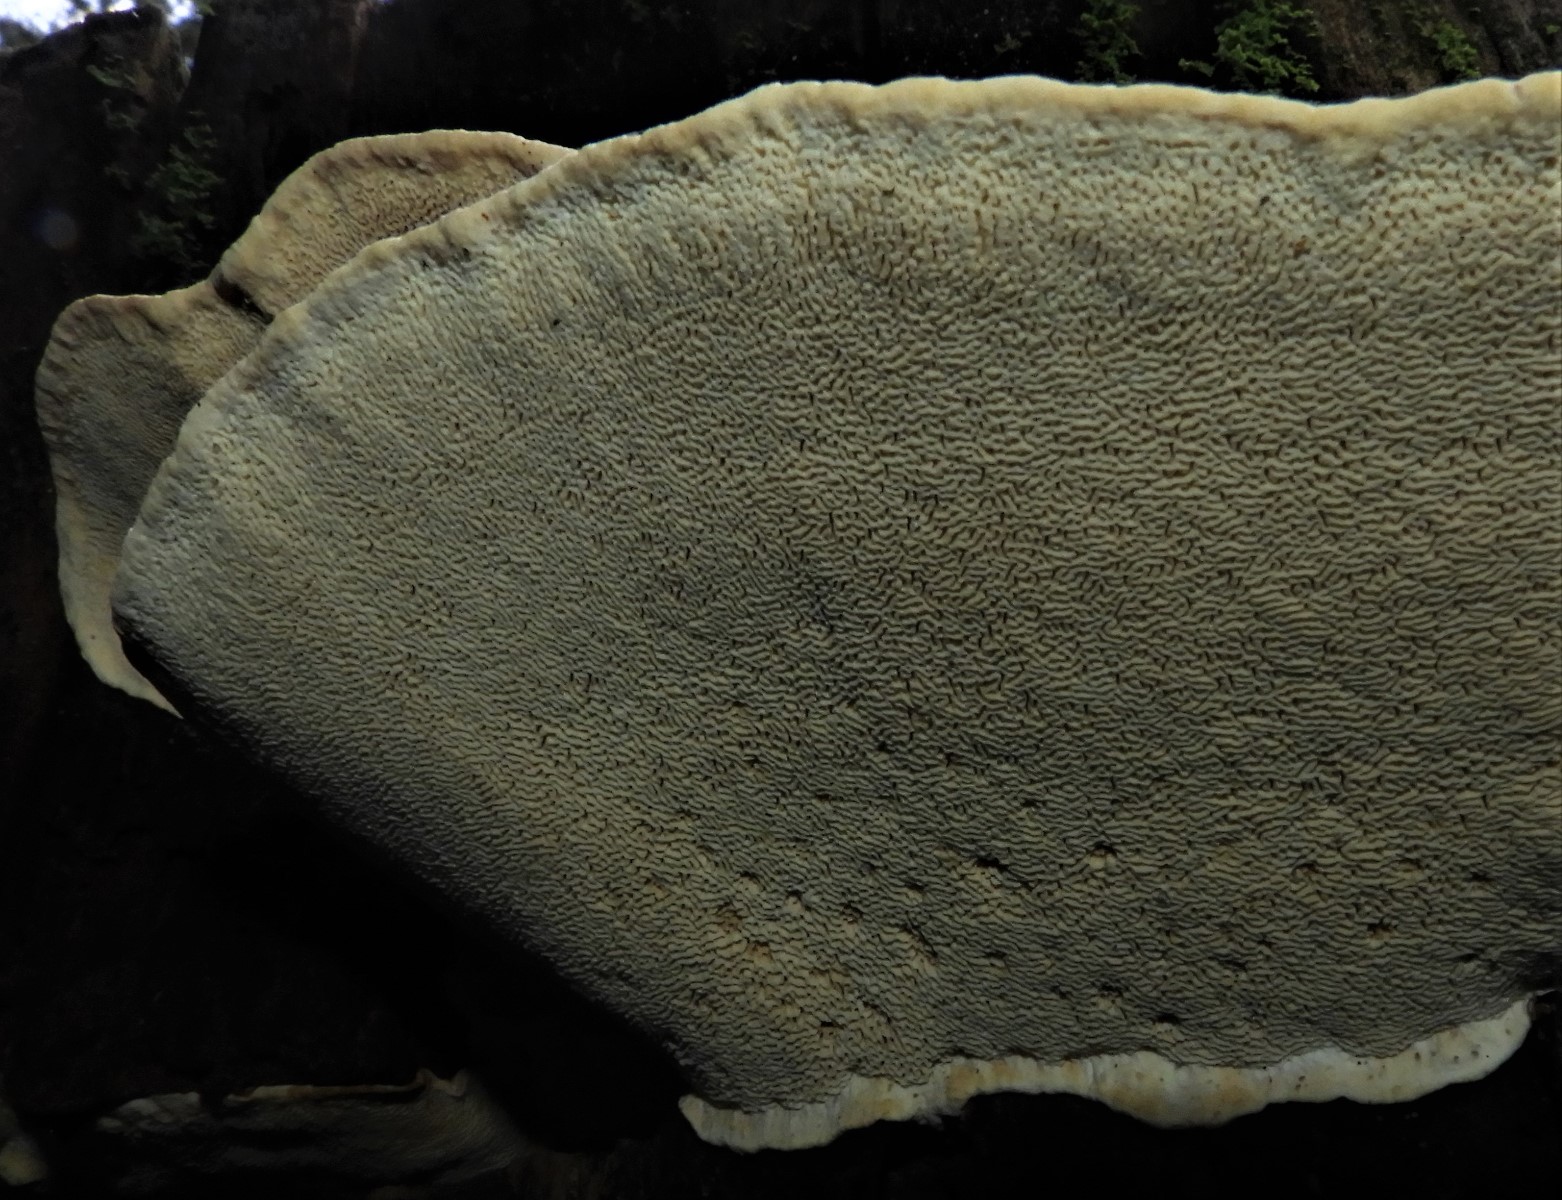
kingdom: Fungi
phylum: Basidiomycota
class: Agaricomycetes
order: Russulales
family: Bondarzewiaceae
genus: Heterobasidion
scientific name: Heterobasidion
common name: rodfordærver
